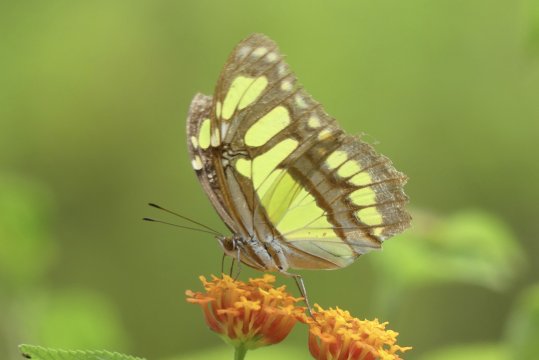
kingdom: Animalia
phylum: Arthropoda
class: Insecta
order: Lepidoptera
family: Nymphalidae
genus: Siproeta
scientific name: Siproeta stelenes
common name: Malachite
